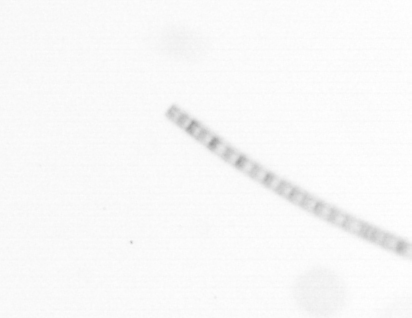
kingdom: Chromista
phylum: Ochrophyta
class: Bacillariophyceae
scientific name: Bacillariophyceae
